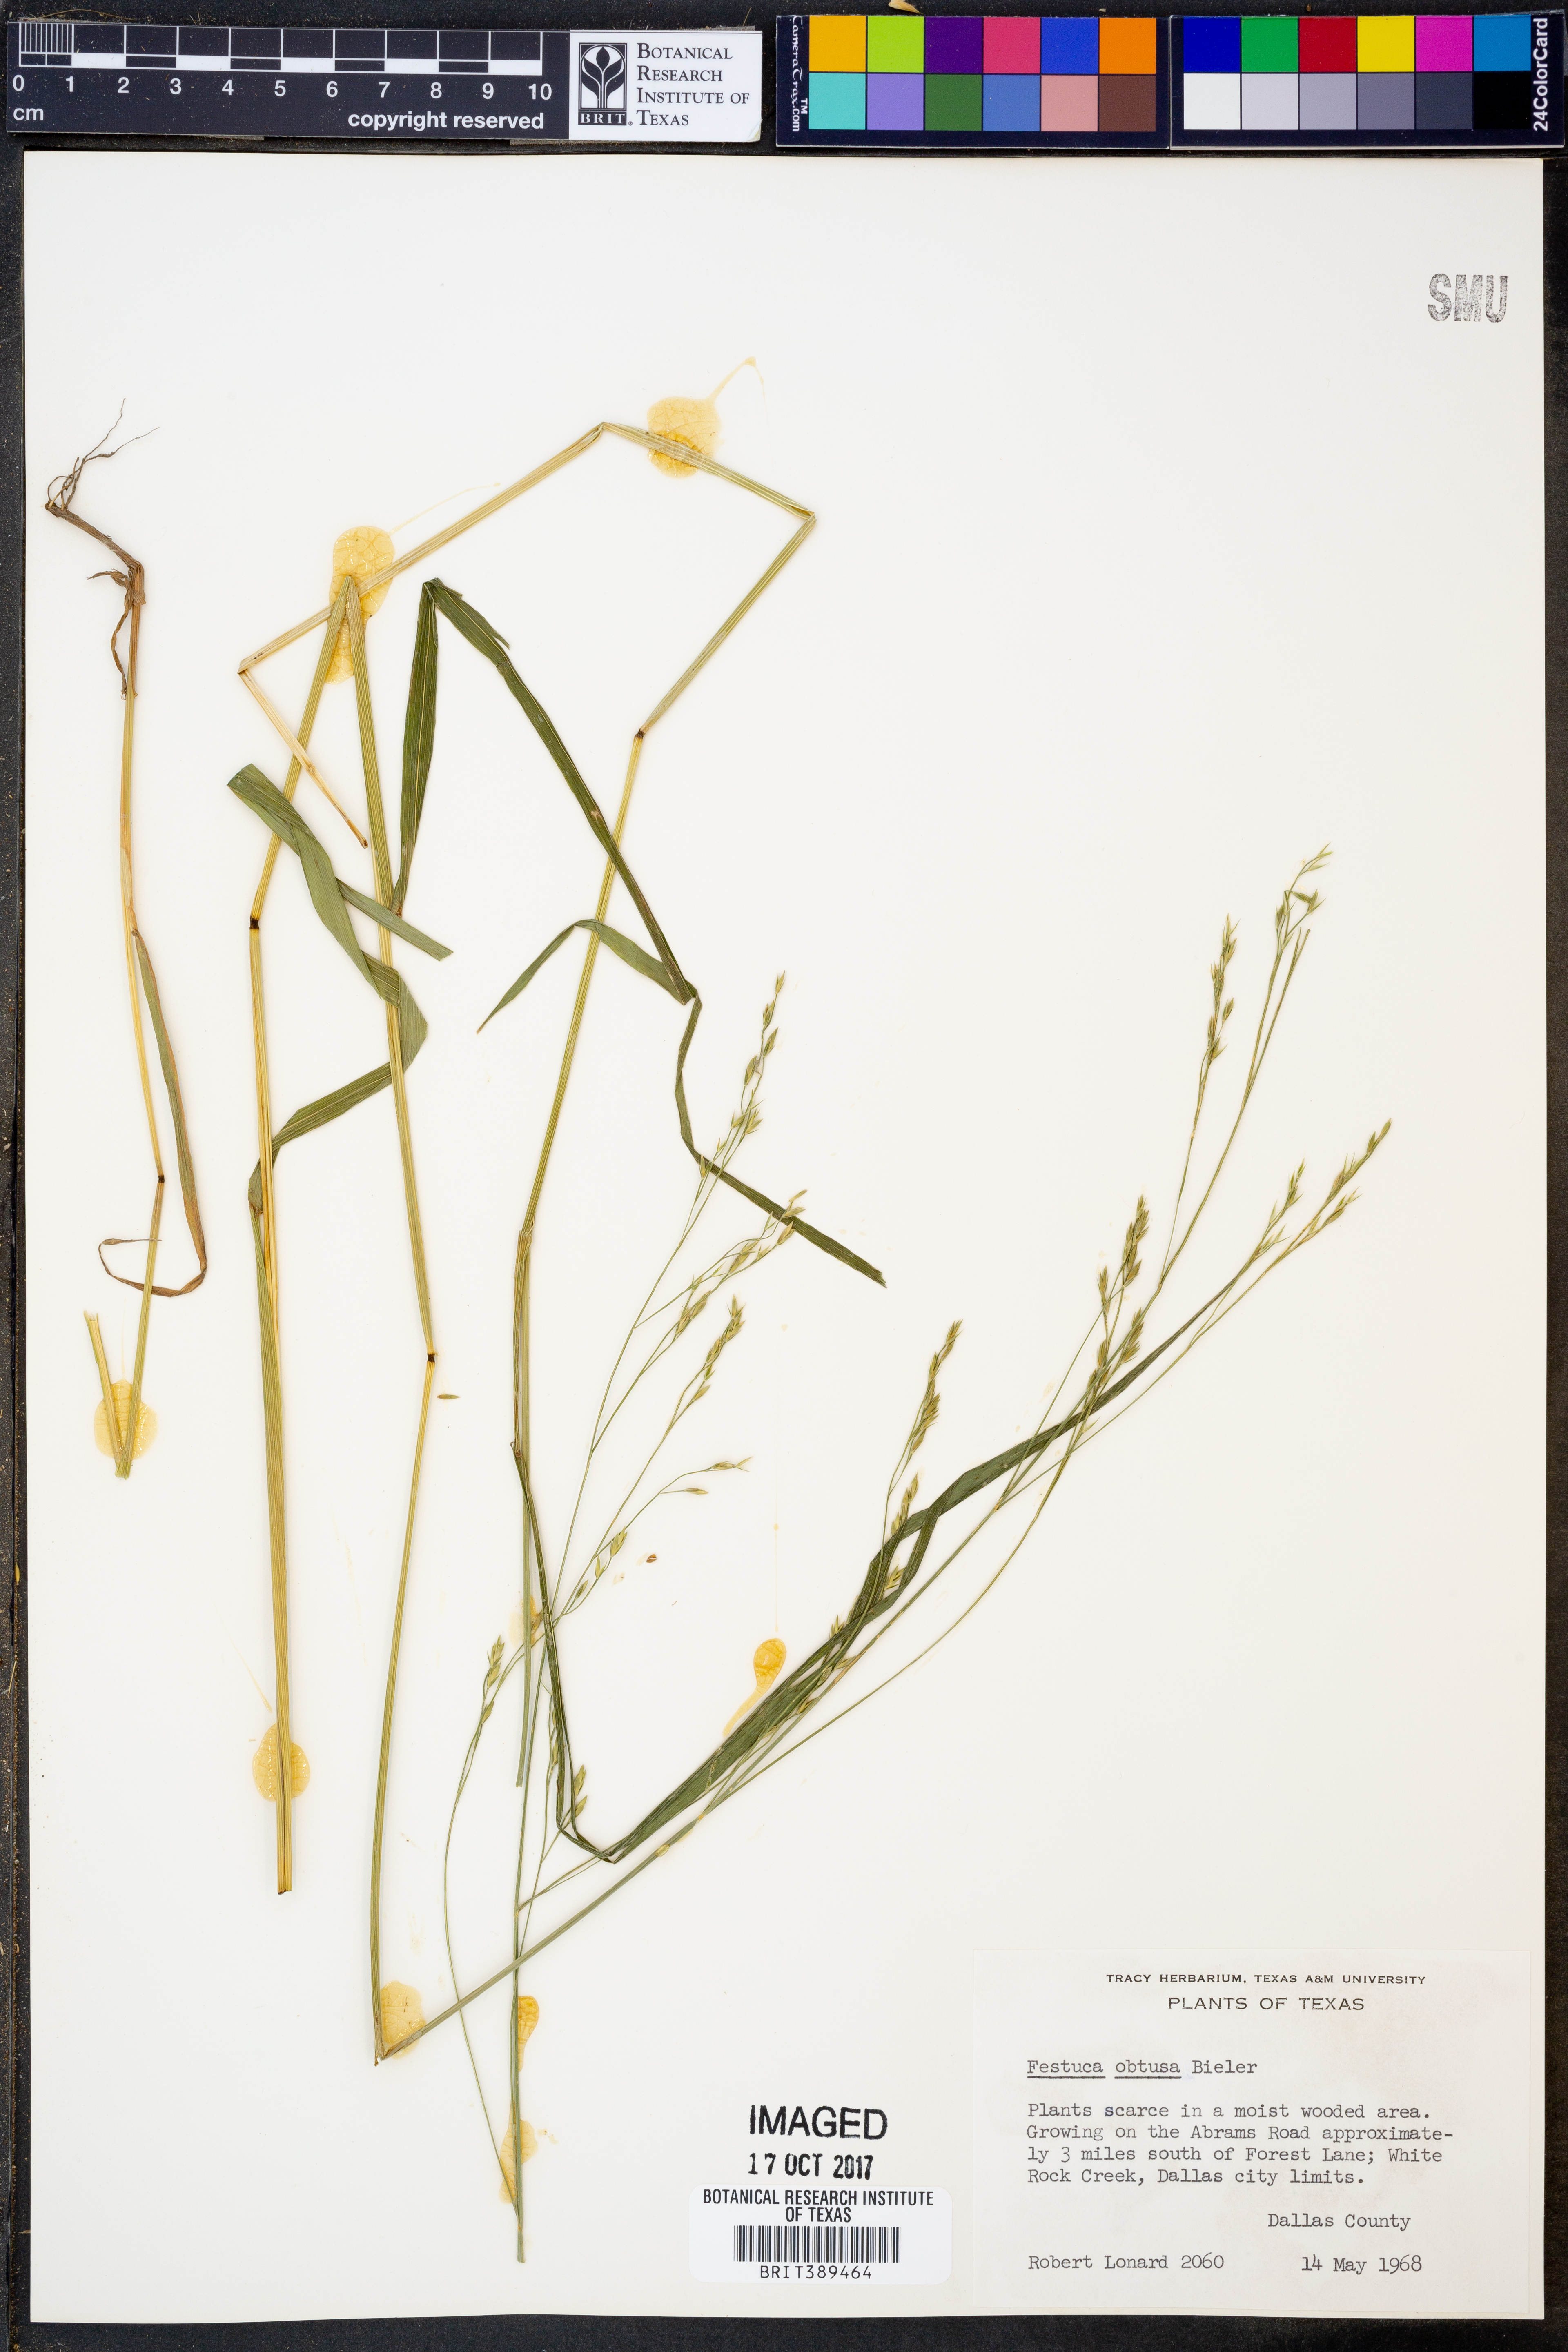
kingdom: Plantae
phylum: Tracheophyta
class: Liliopsida
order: Poales
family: Poaceae
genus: Festuca
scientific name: Festuca subverticillata
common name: Nodding fescue
